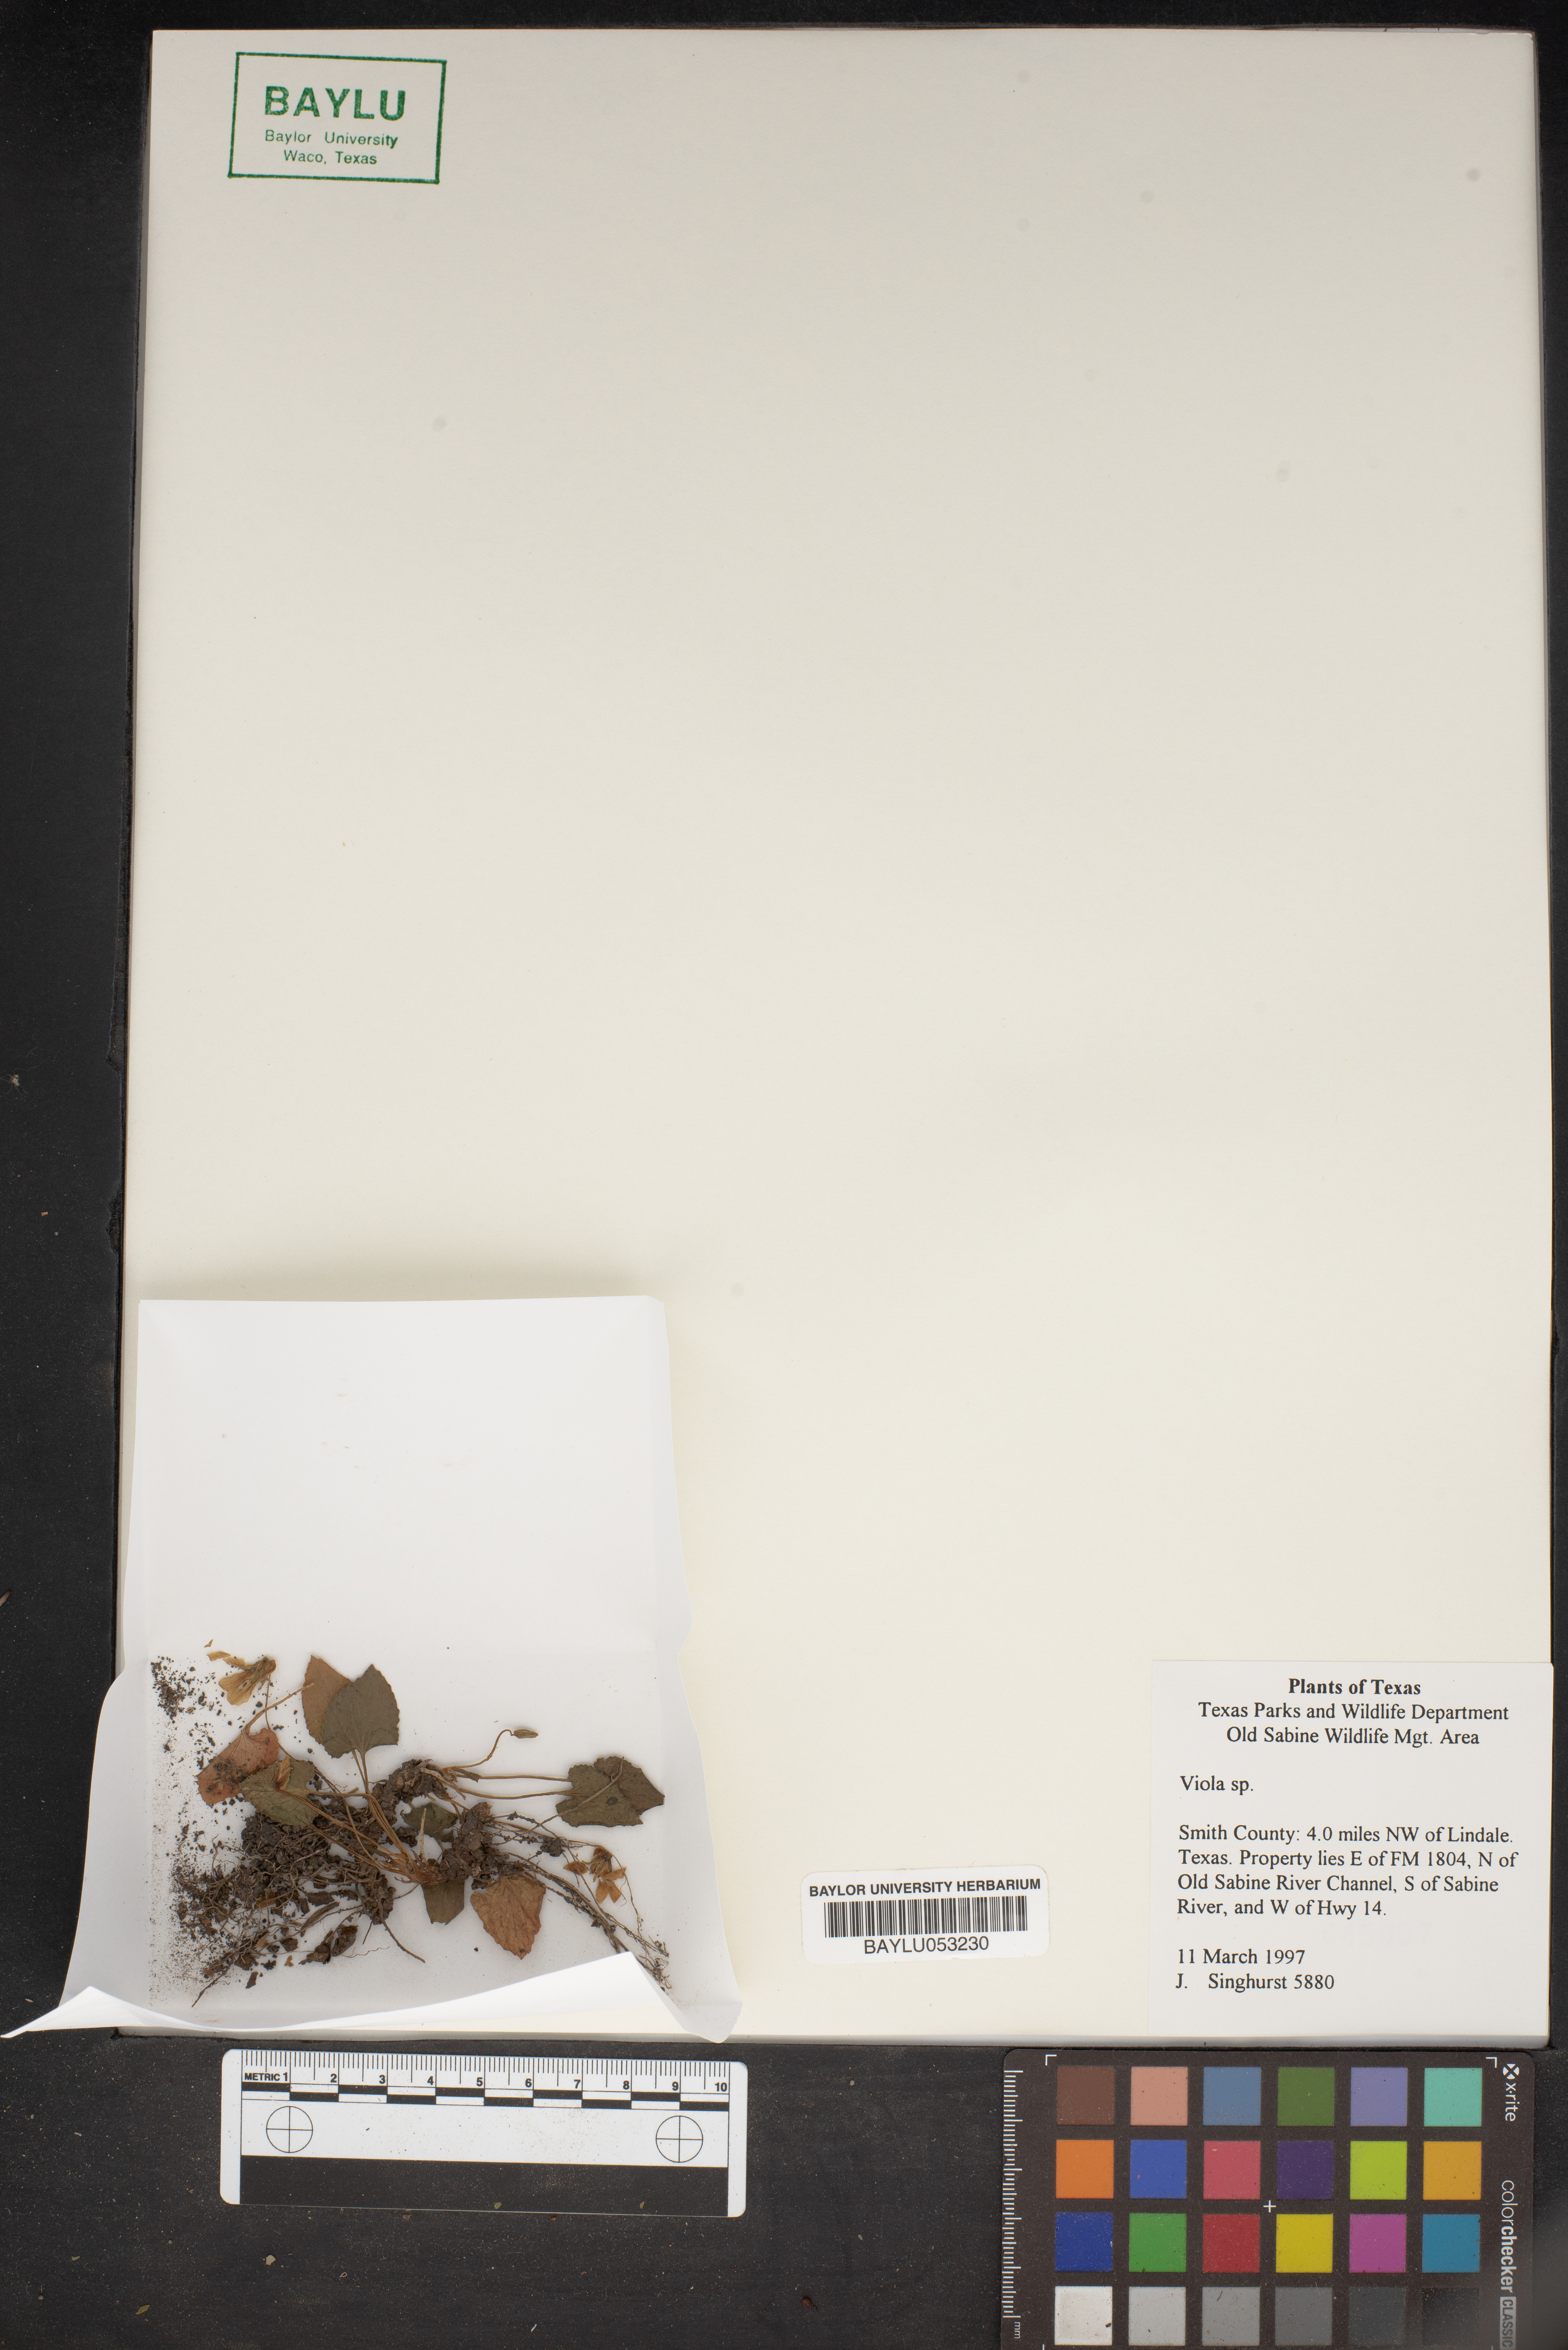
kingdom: Plantae
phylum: Tracheophyta
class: Magnoliopsida
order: Malpighiales
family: Violaceae
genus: Viola
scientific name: Viola
